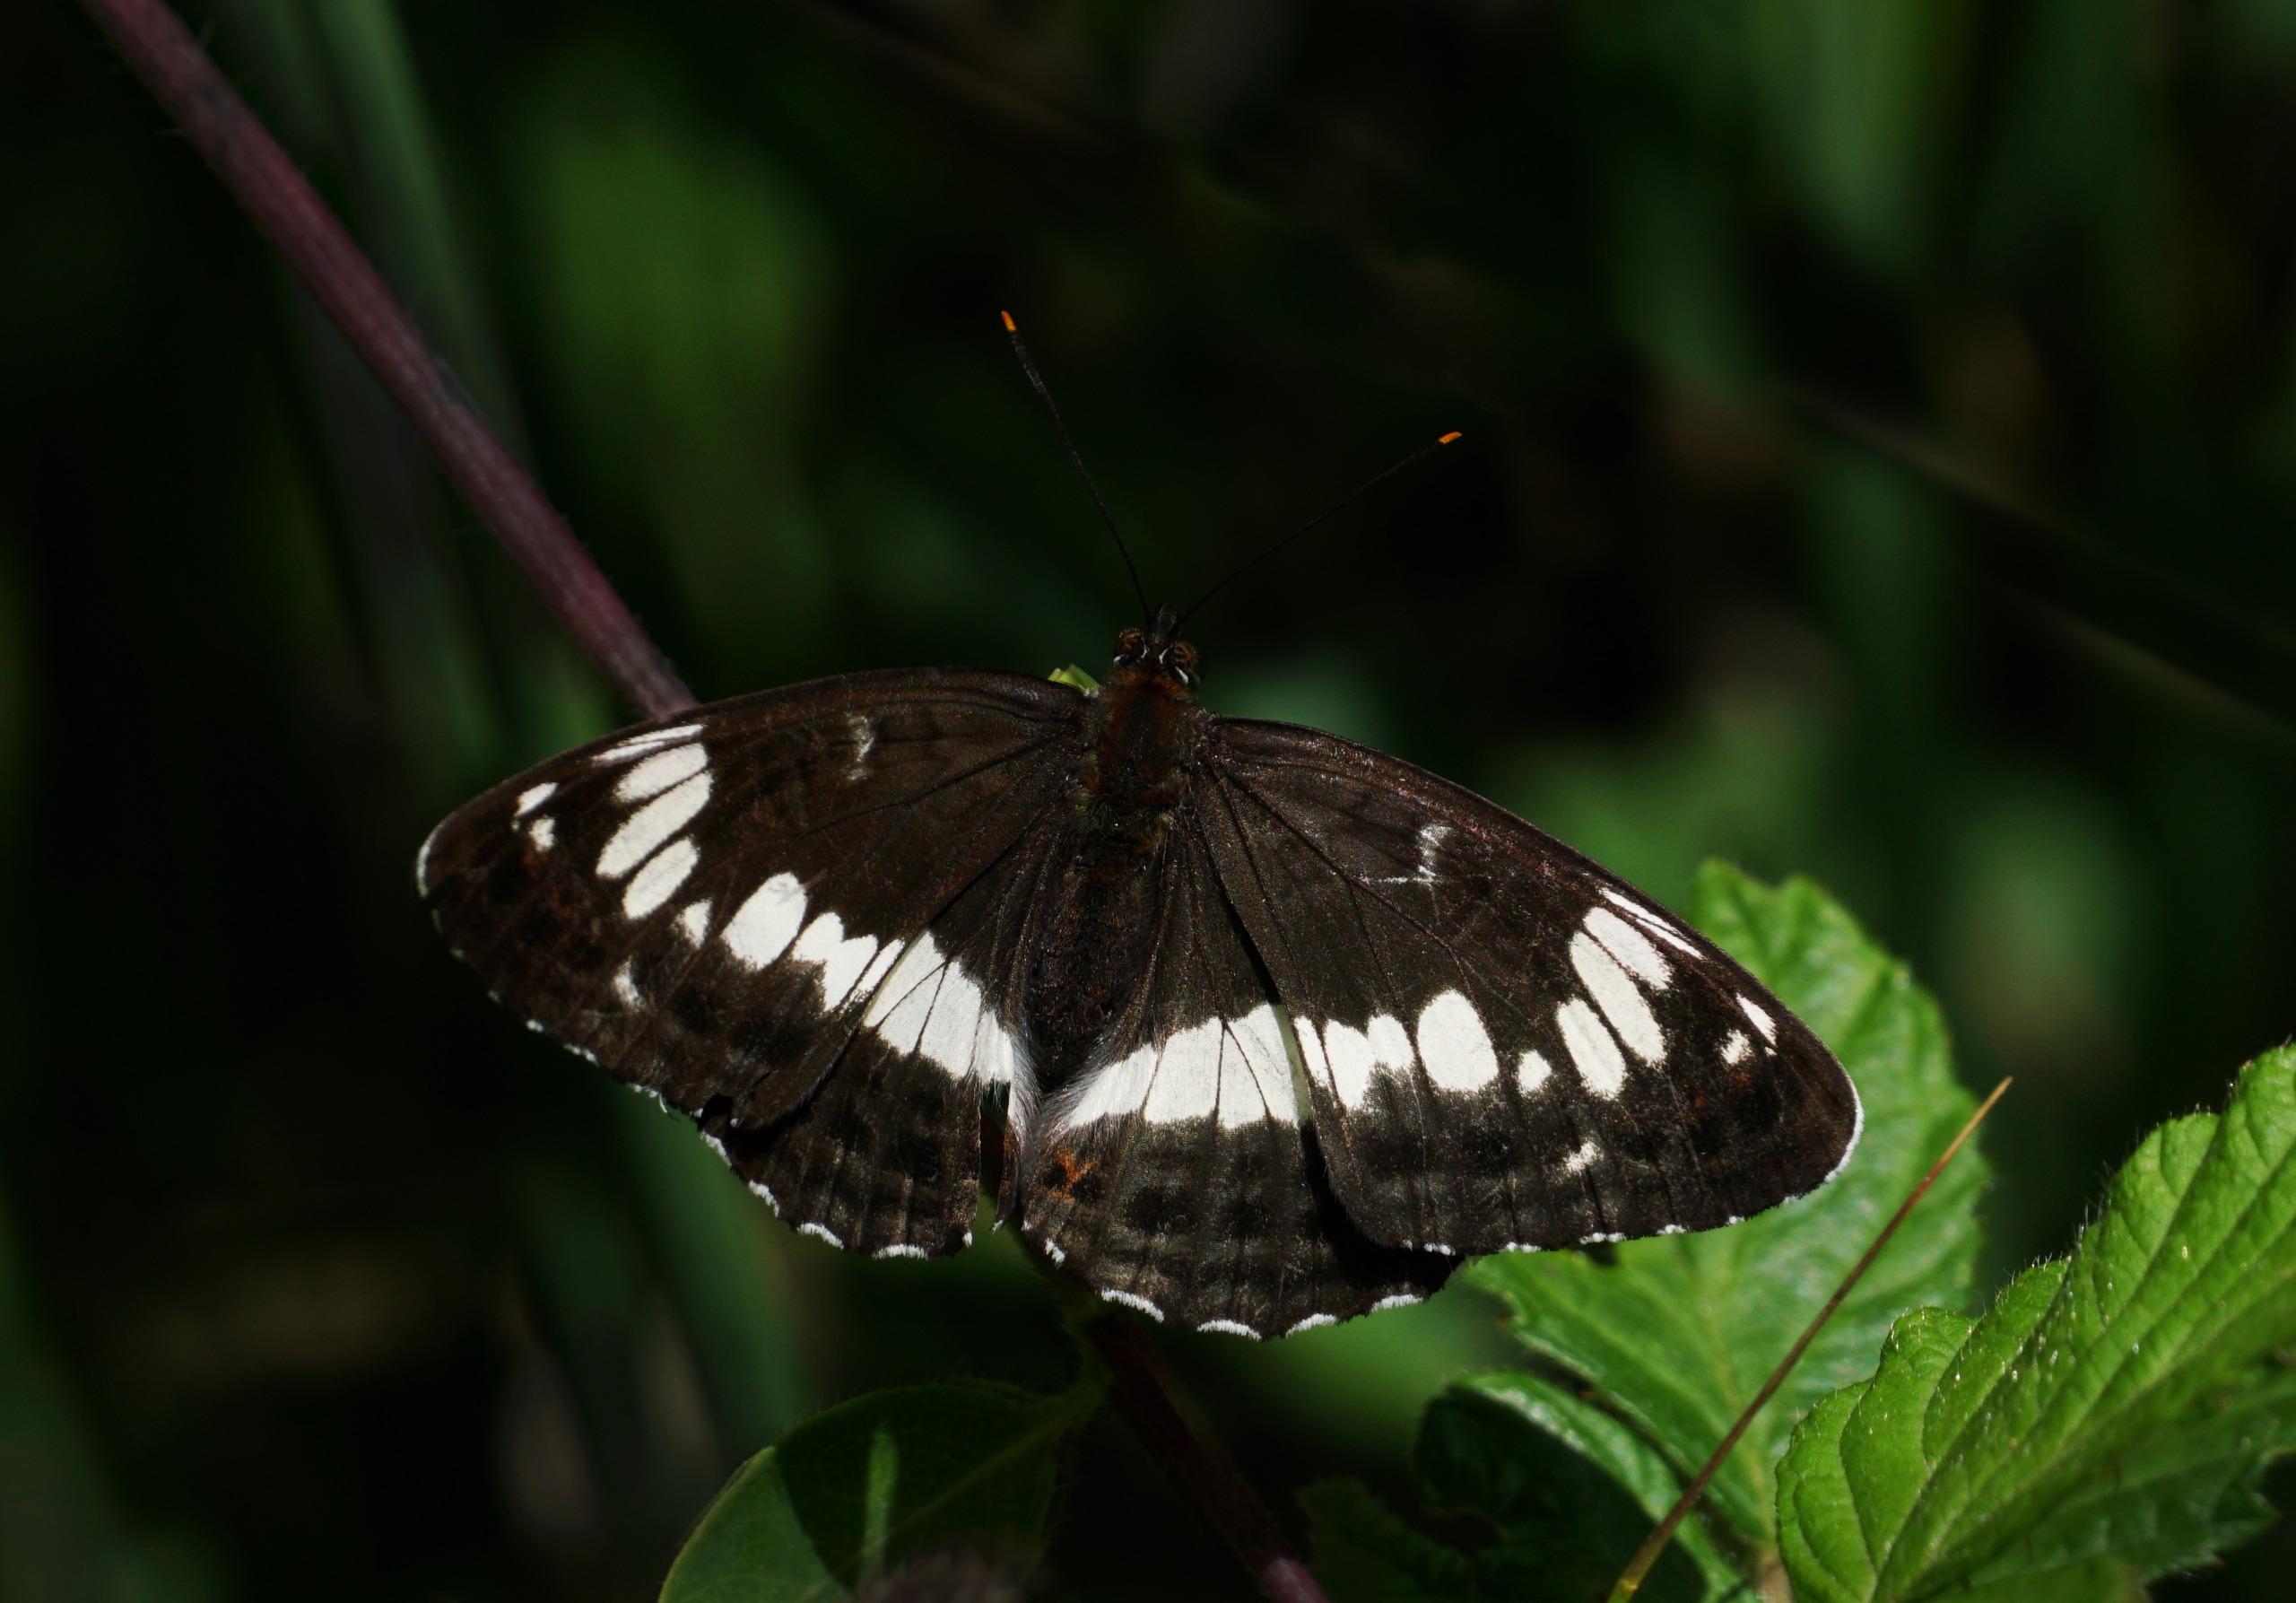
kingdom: Animalia
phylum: Arthropoda
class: Insecta
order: Lepidoptera
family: Nymphalidae
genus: Ladoga
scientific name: Ladoga camilla
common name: Hvid admiral
